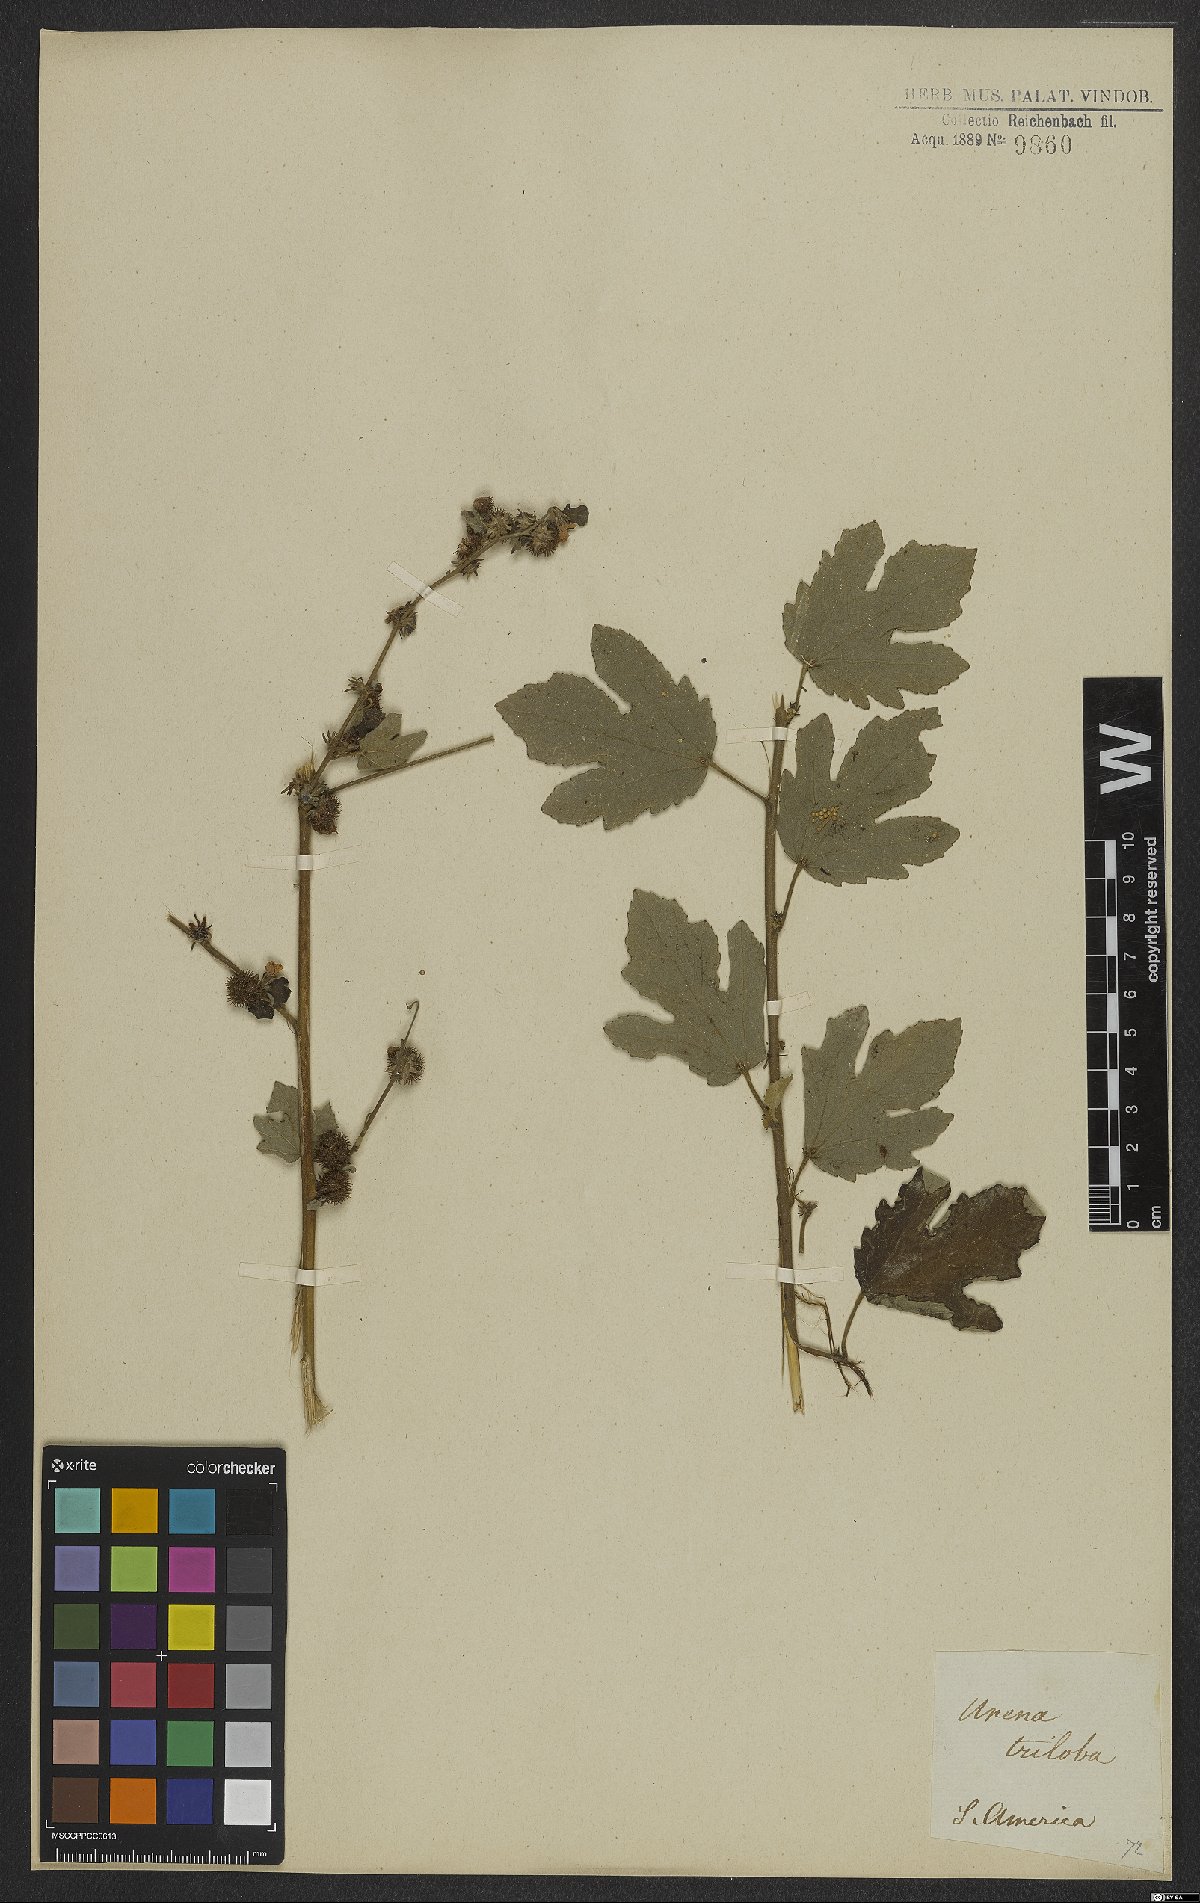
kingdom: Plantae
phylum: Tracheophyta
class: Magnoliopsida
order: Malvales
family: Malvaceae
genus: Urena
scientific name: Urena lobata
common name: Caesarweed
